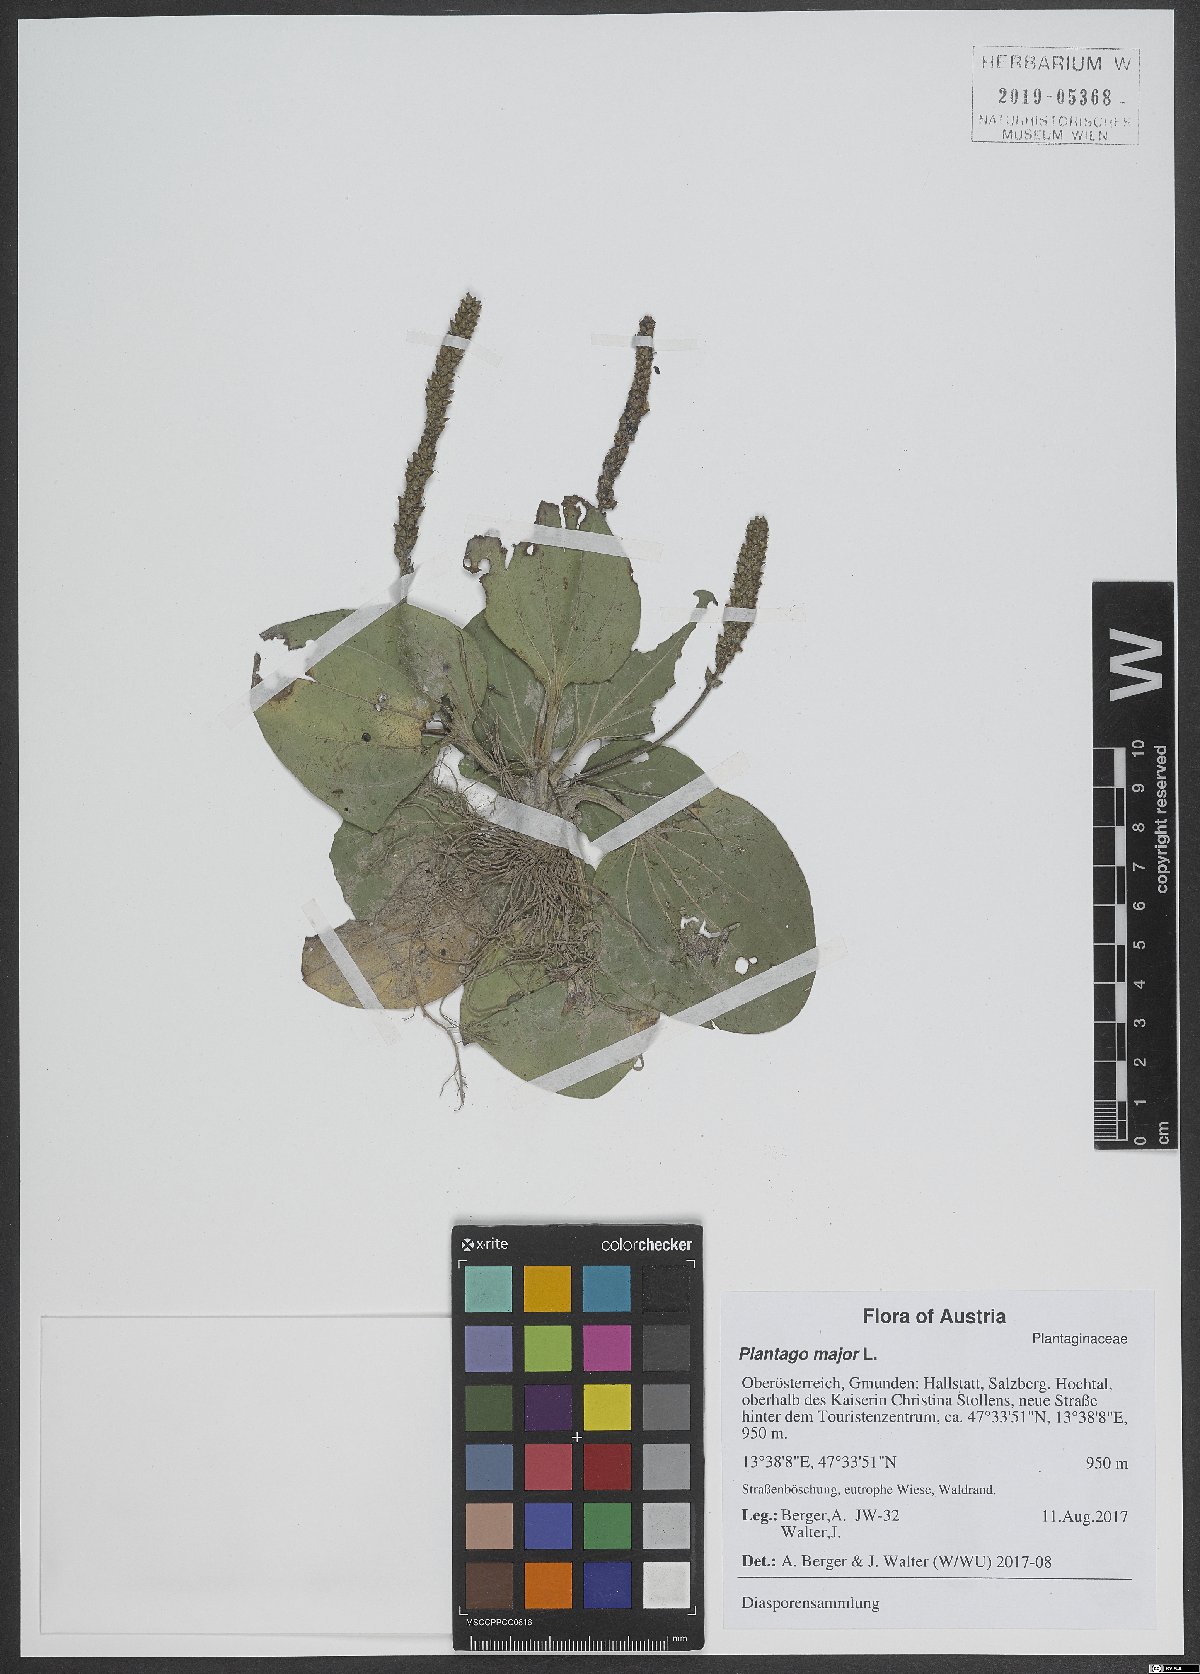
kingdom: Plantae
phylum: Tracheophyta
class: Magnoliopsida
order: Lamiales
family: Plantaginaceae
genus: Plantago
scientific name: Plantago major
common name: Common plantain
